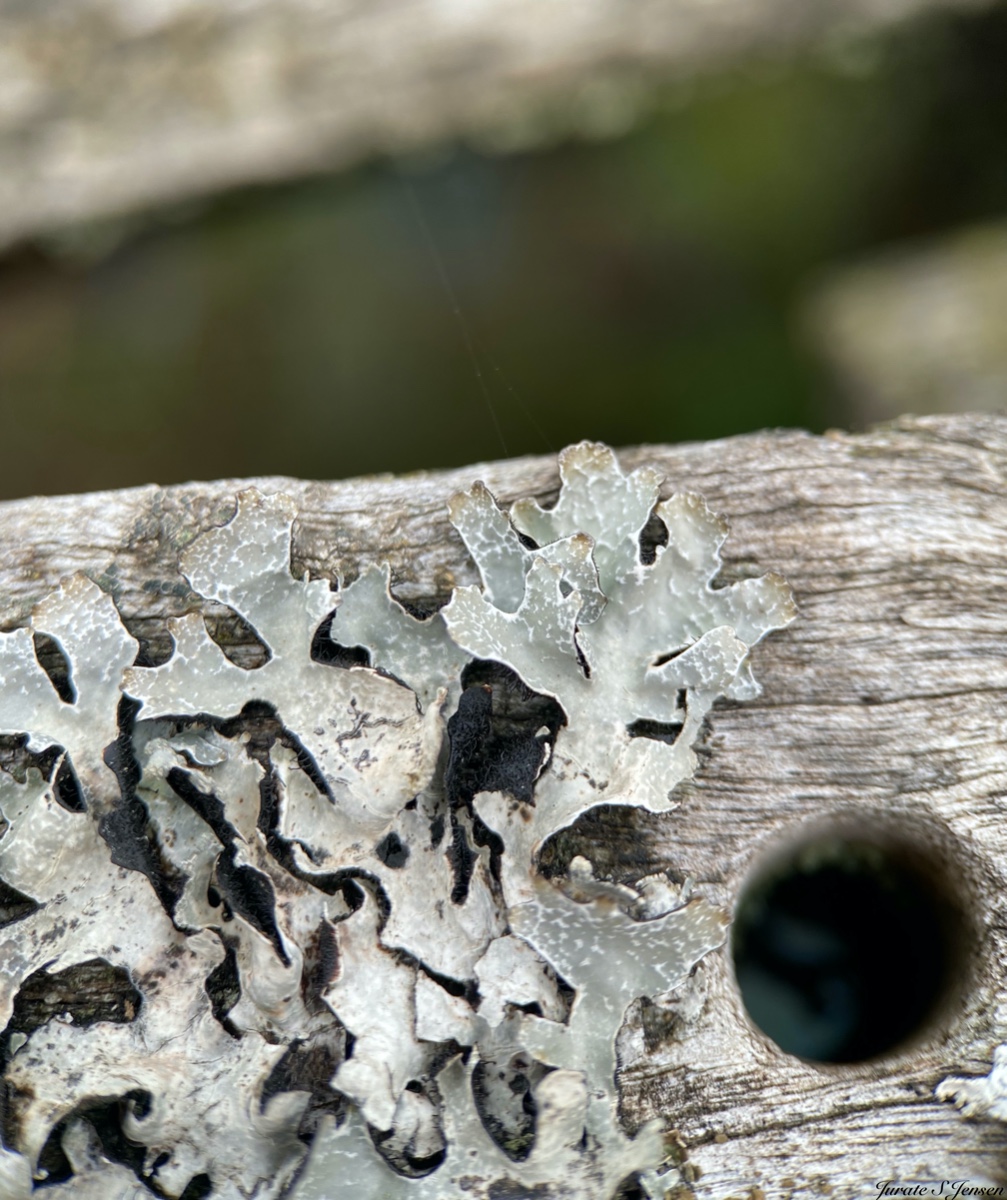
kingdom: Fungi
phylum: Ascomycota
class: Lecanoromycetes
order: Lecanorales
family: Parmeliaceae
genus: Parmelia
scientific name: Parmelia sulcata
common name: rynket skållav
